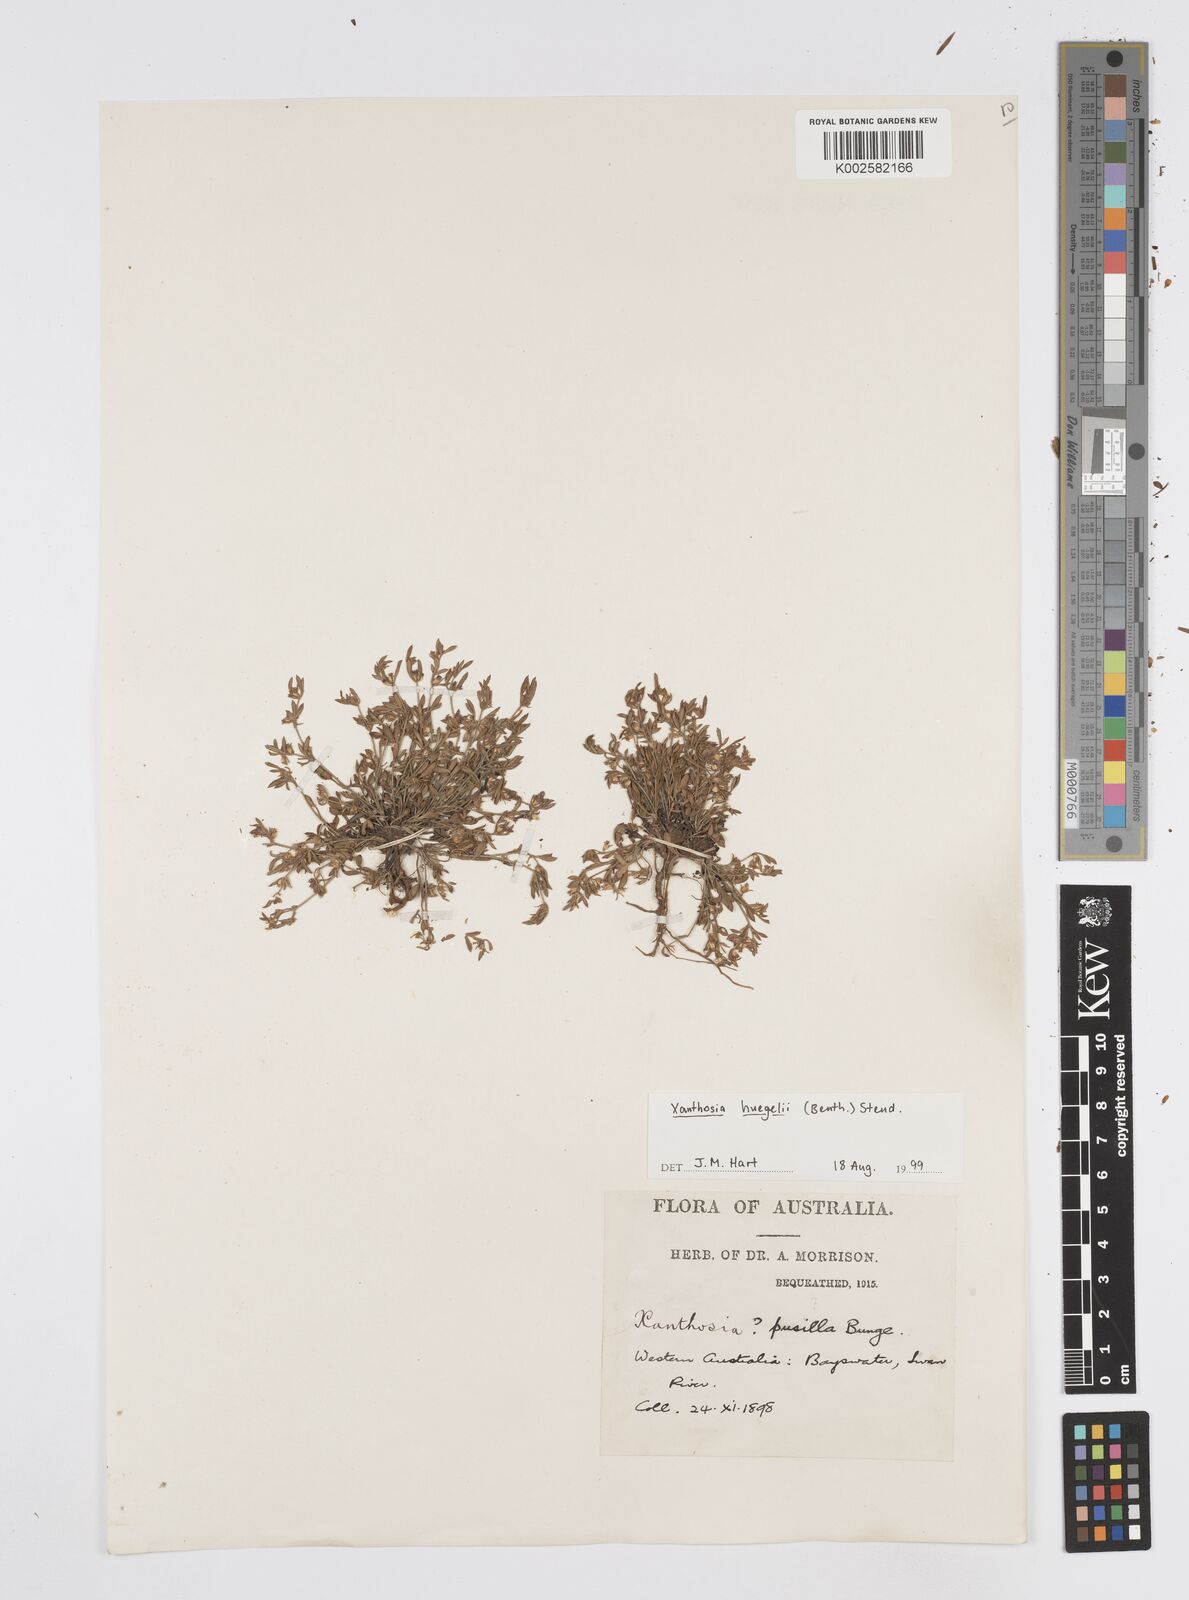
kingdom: Plantae
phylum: Tracheophyta
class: Magnoliopsida
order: Apiales
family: Apiaceae
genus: Xanthosia
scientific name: Xanthosia huegelii
